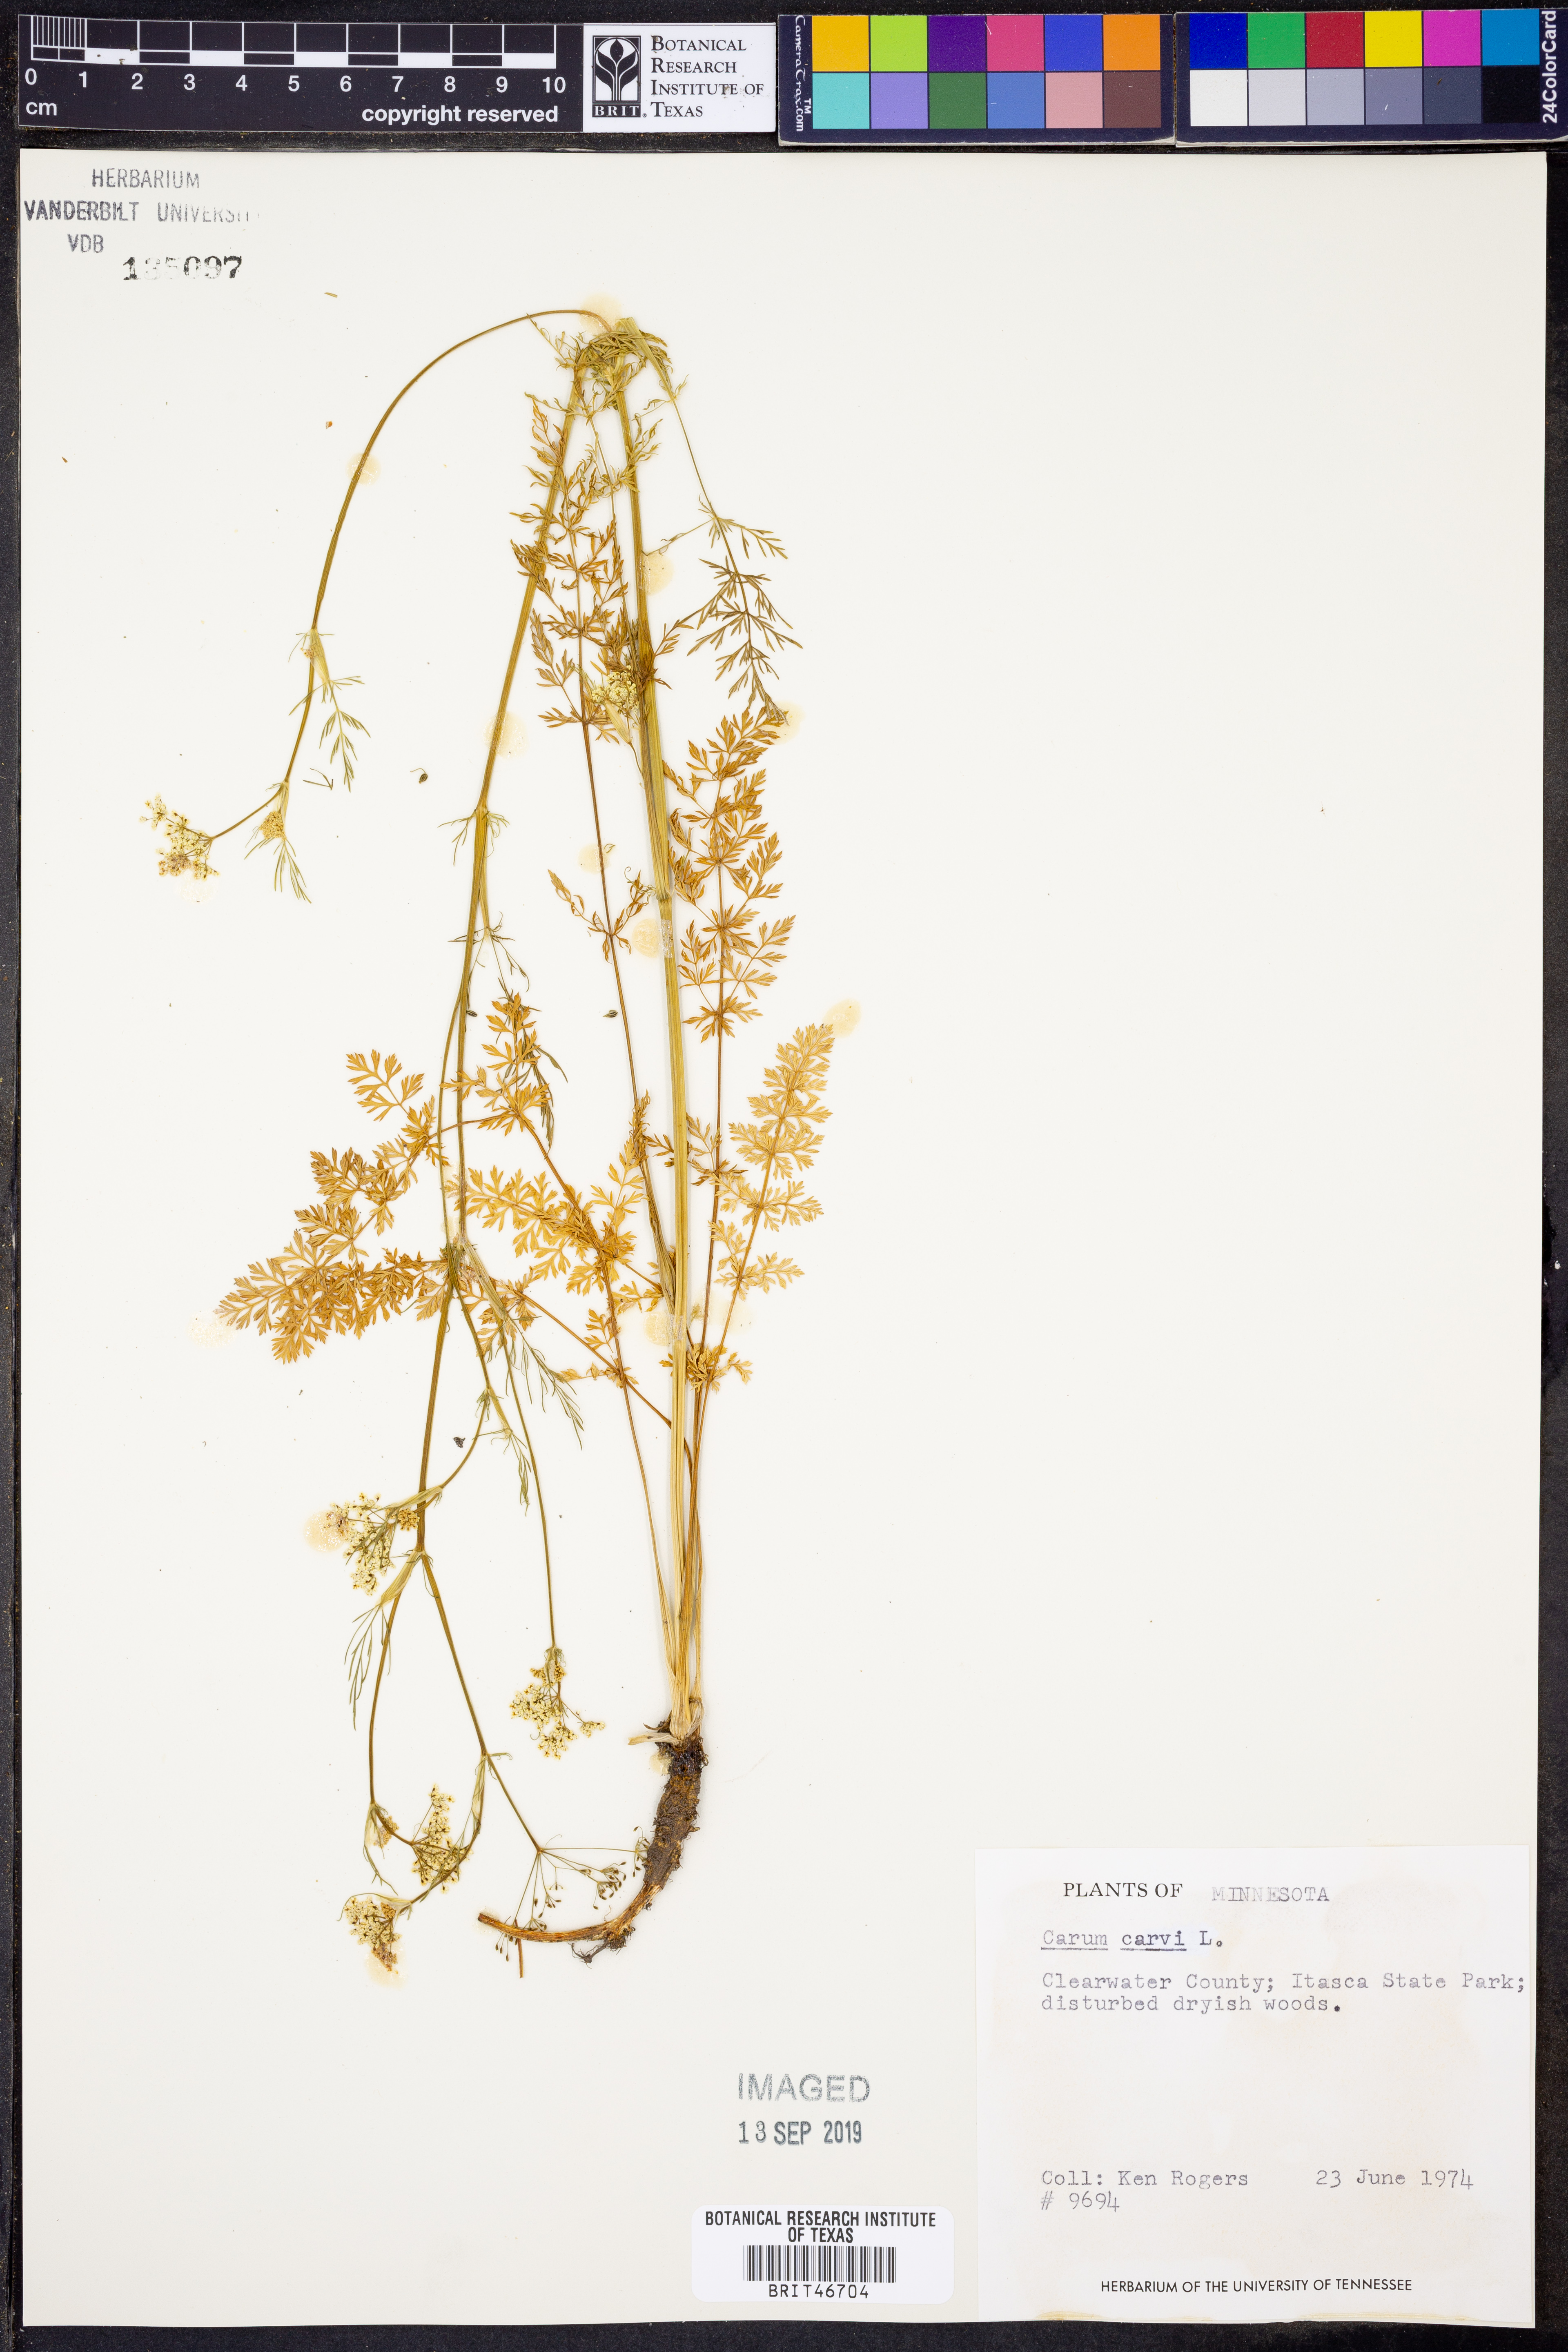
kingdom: Plantae
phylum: Tracheophyta
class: Magnoliopsida
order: Apiales
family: Apiaceae
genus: Carum
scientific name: Carum carvi
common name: Caraway
